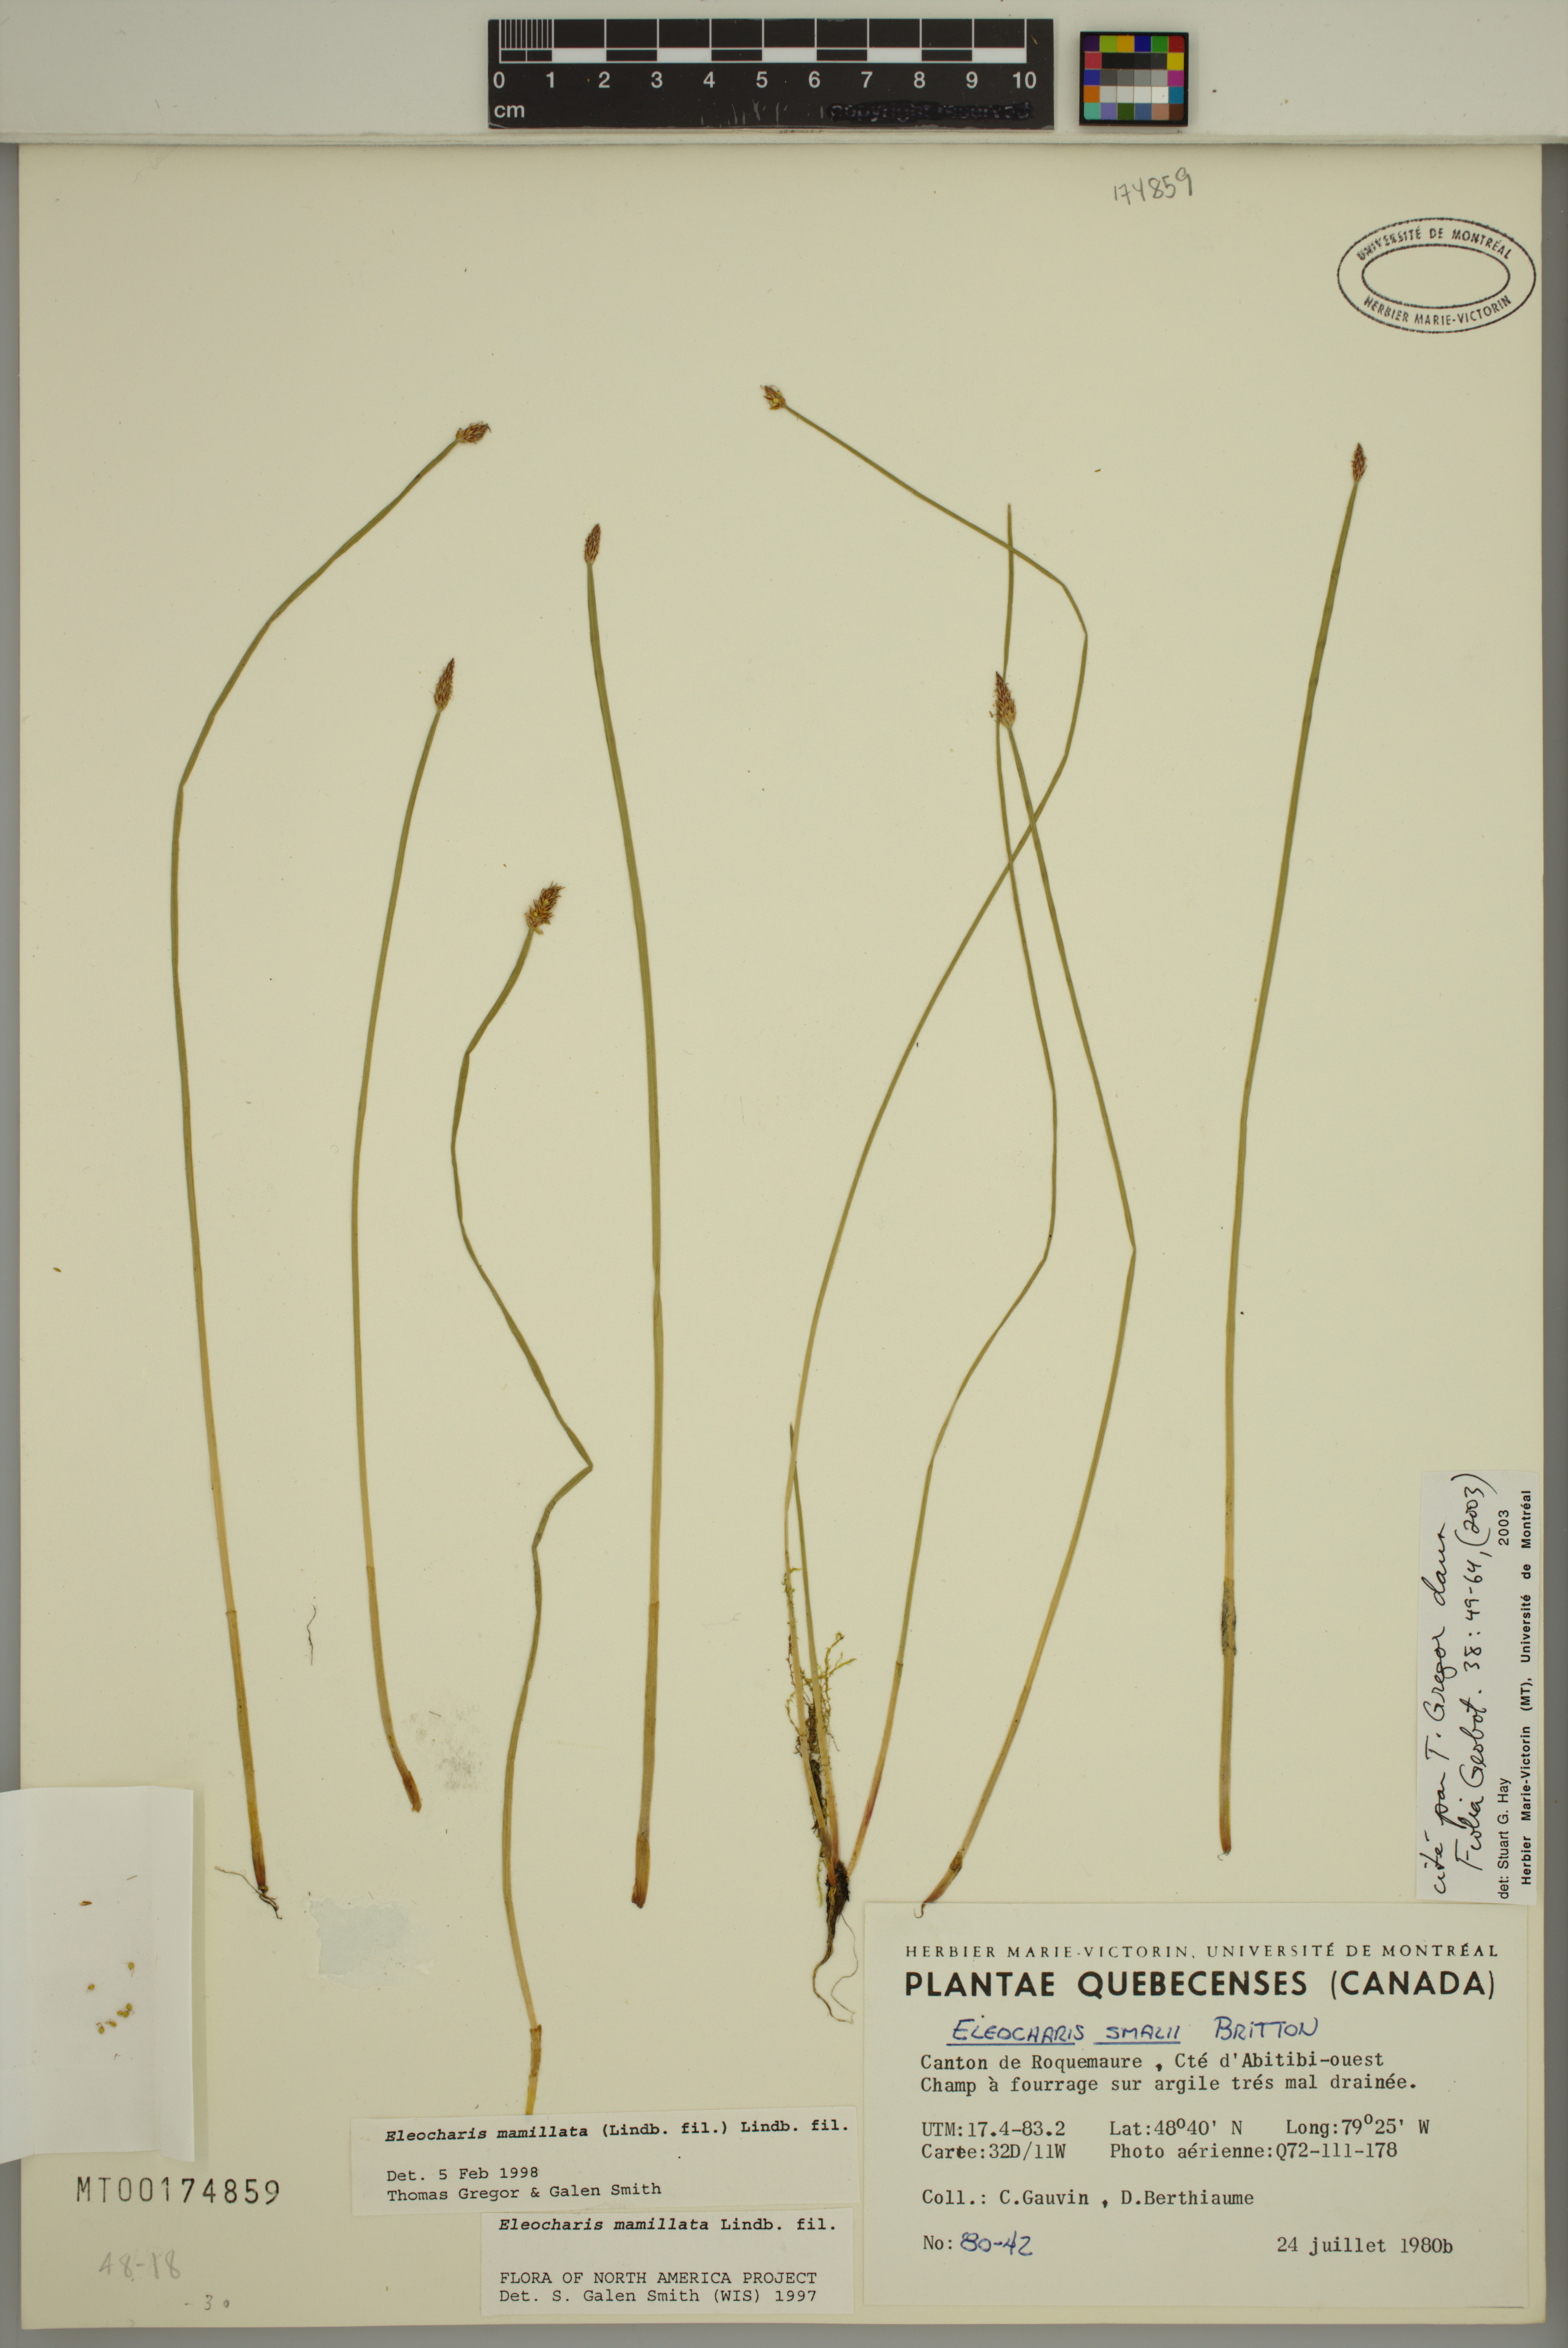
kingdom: Plantae
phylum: Tracheophyta
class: Liliopsida
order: Poales
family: Cyperaceae
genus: Eleocharis
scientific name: Eleocharis mamillata
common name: Northern spike-rush
